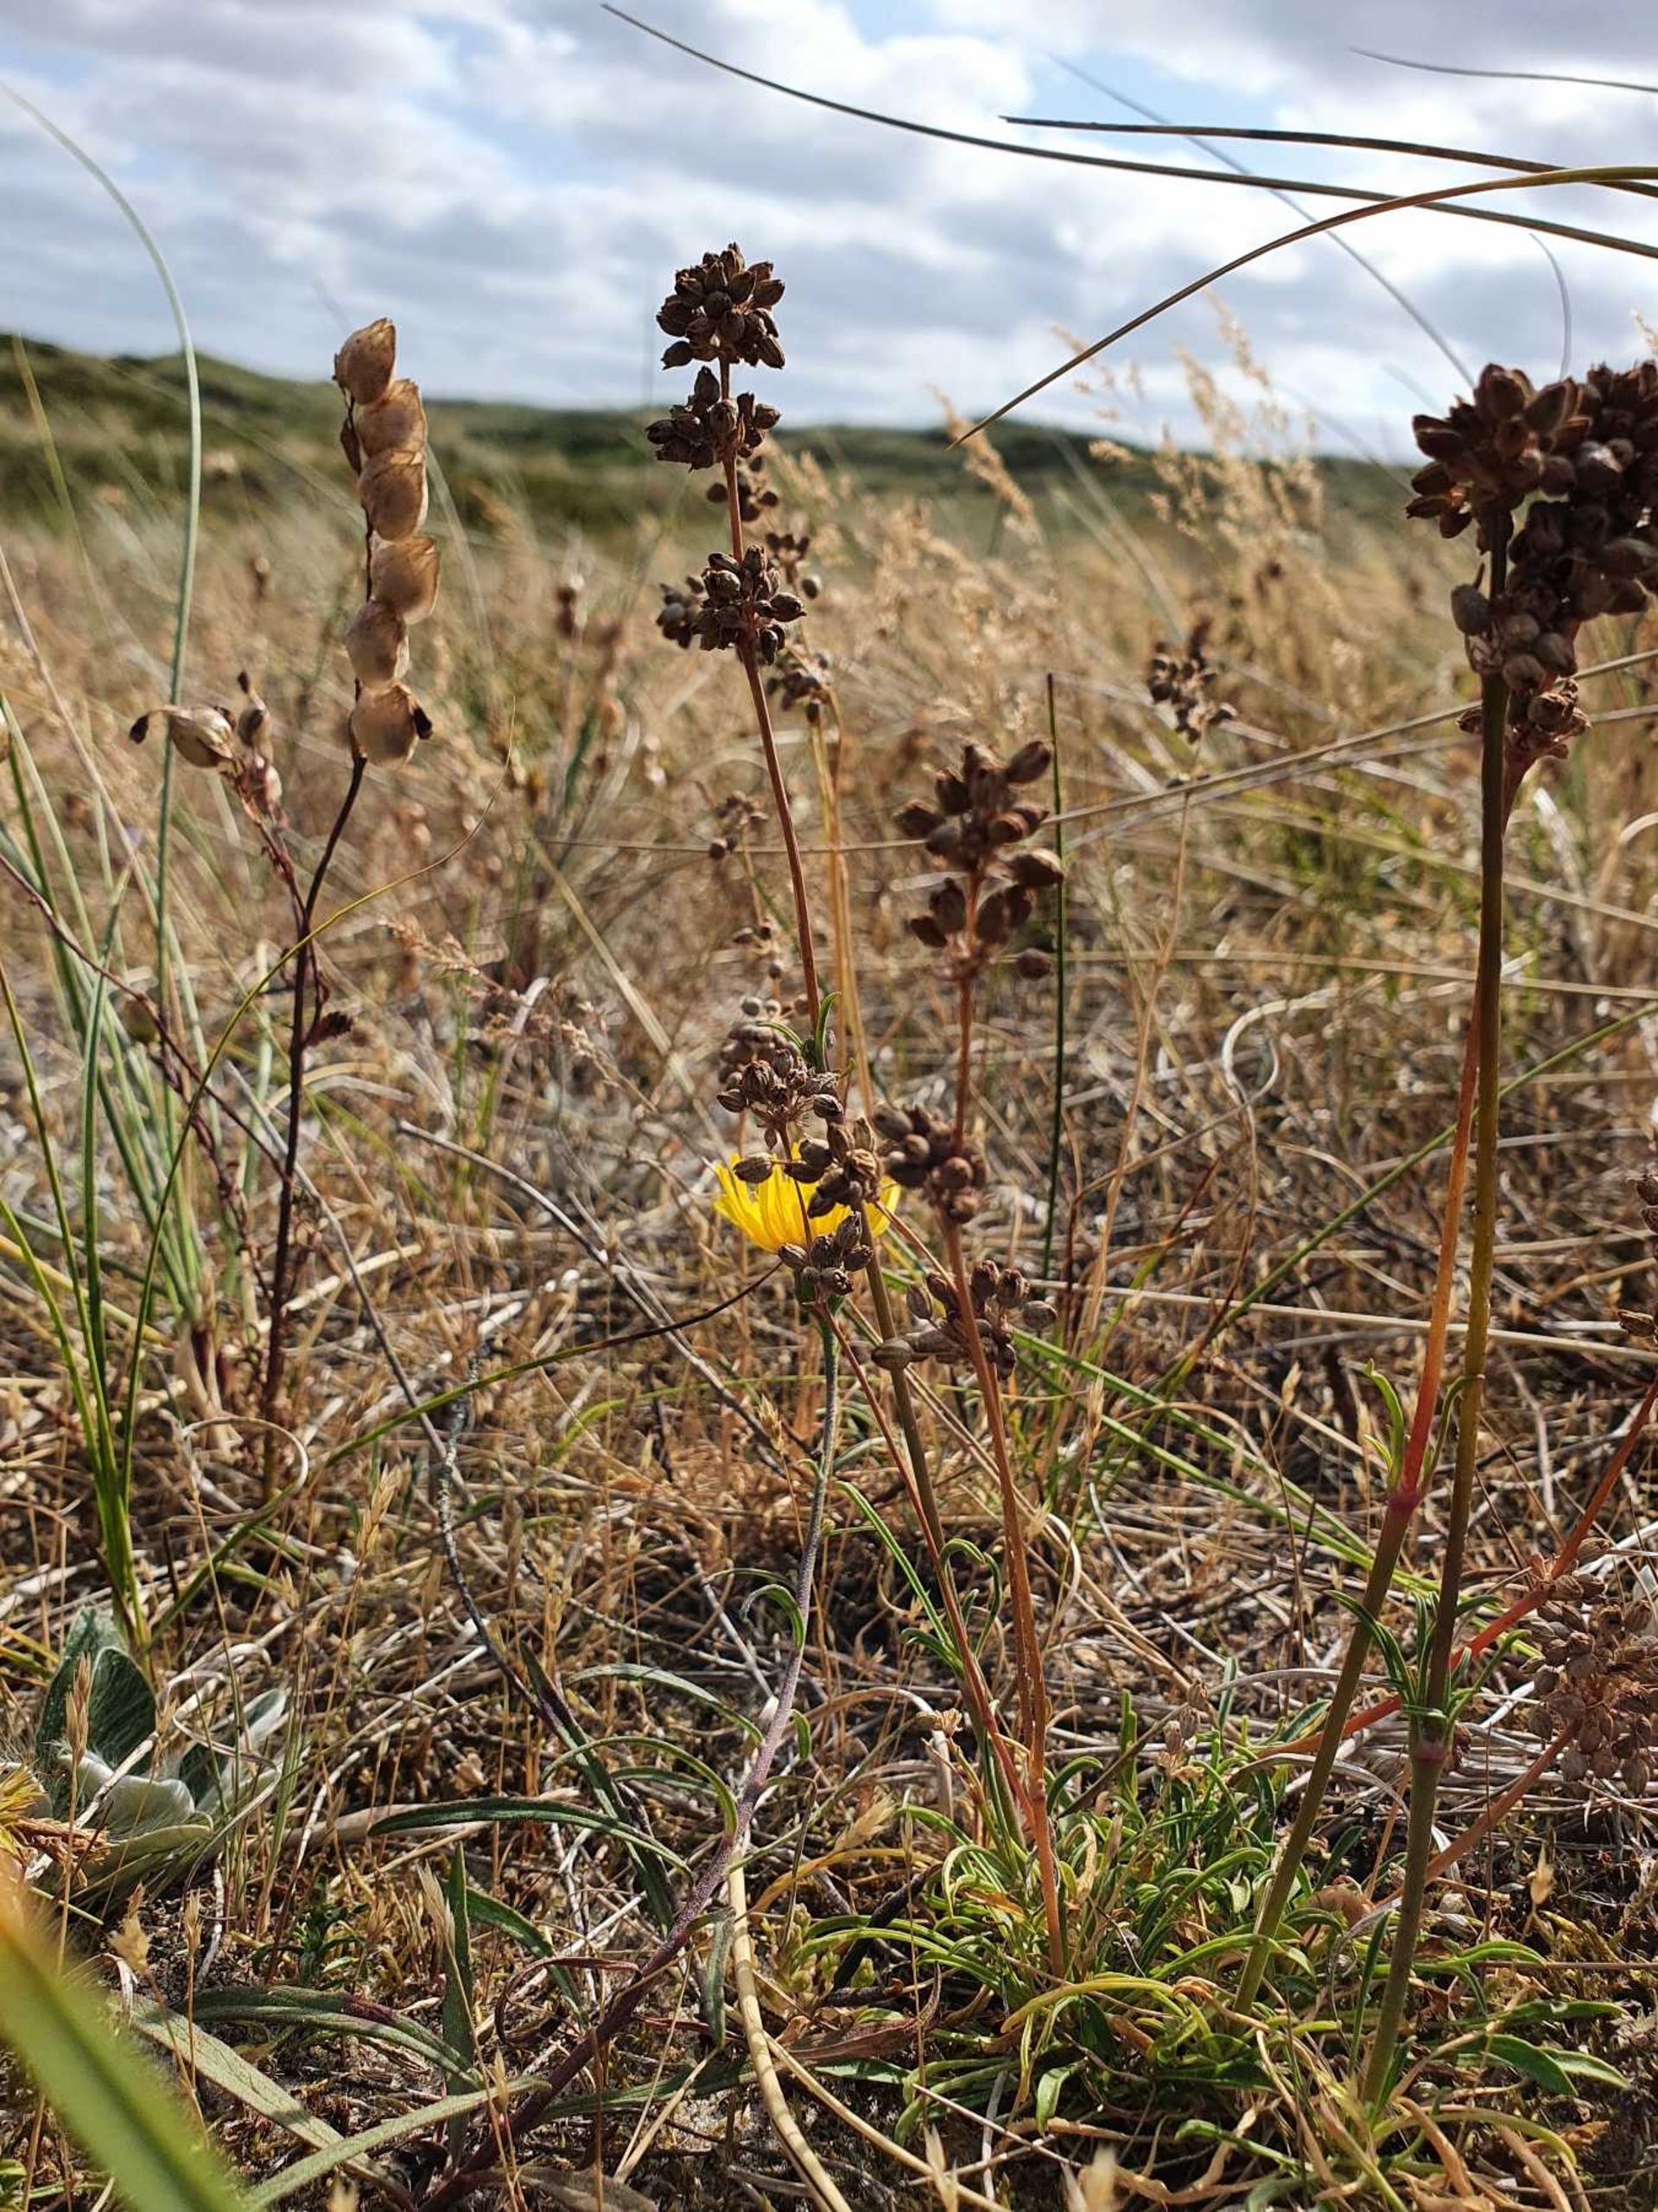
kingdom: Plantae
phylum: Tracheophyta
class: Magnoliopsida
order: Caryophyllales
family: Caryophyllaceae
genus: Silene
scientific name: Silene otites
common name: Klit-limurt
